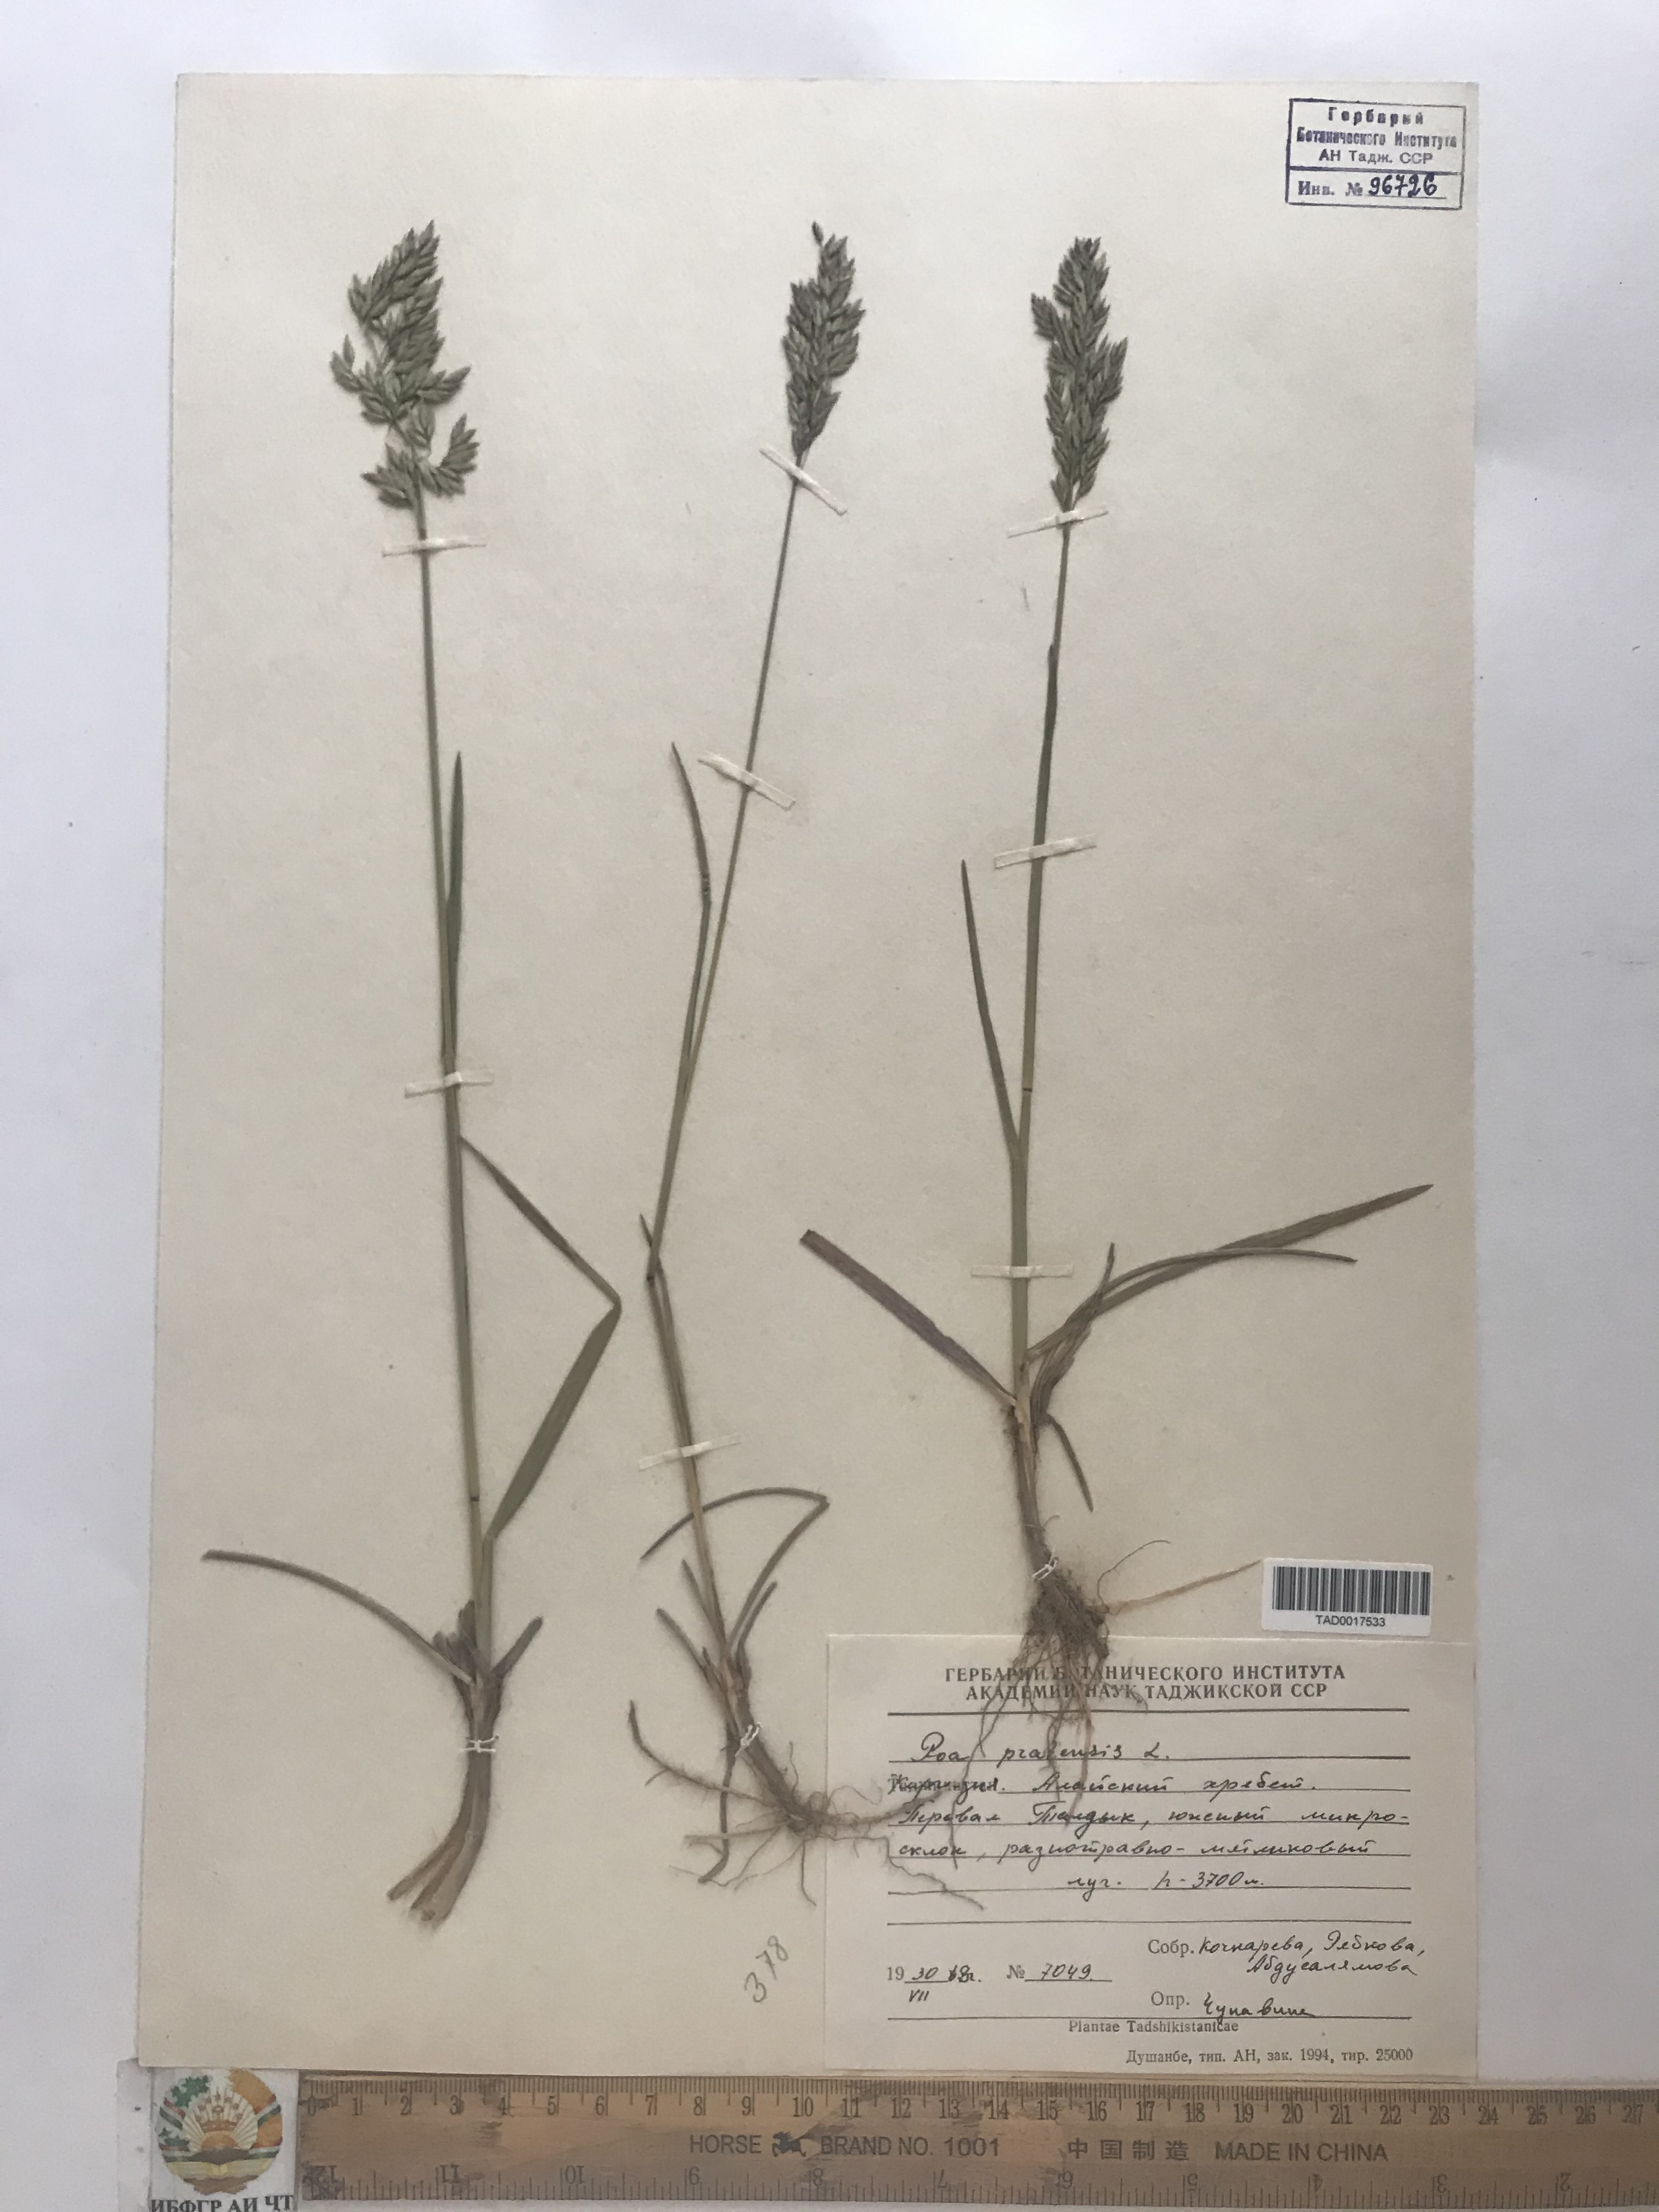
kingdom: Plantae
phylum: Tracheophyta
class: Liliopsida
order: Poales
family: Poaceae
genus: Poa
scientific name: Poa pratensis
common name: Kentucky bluegrass
